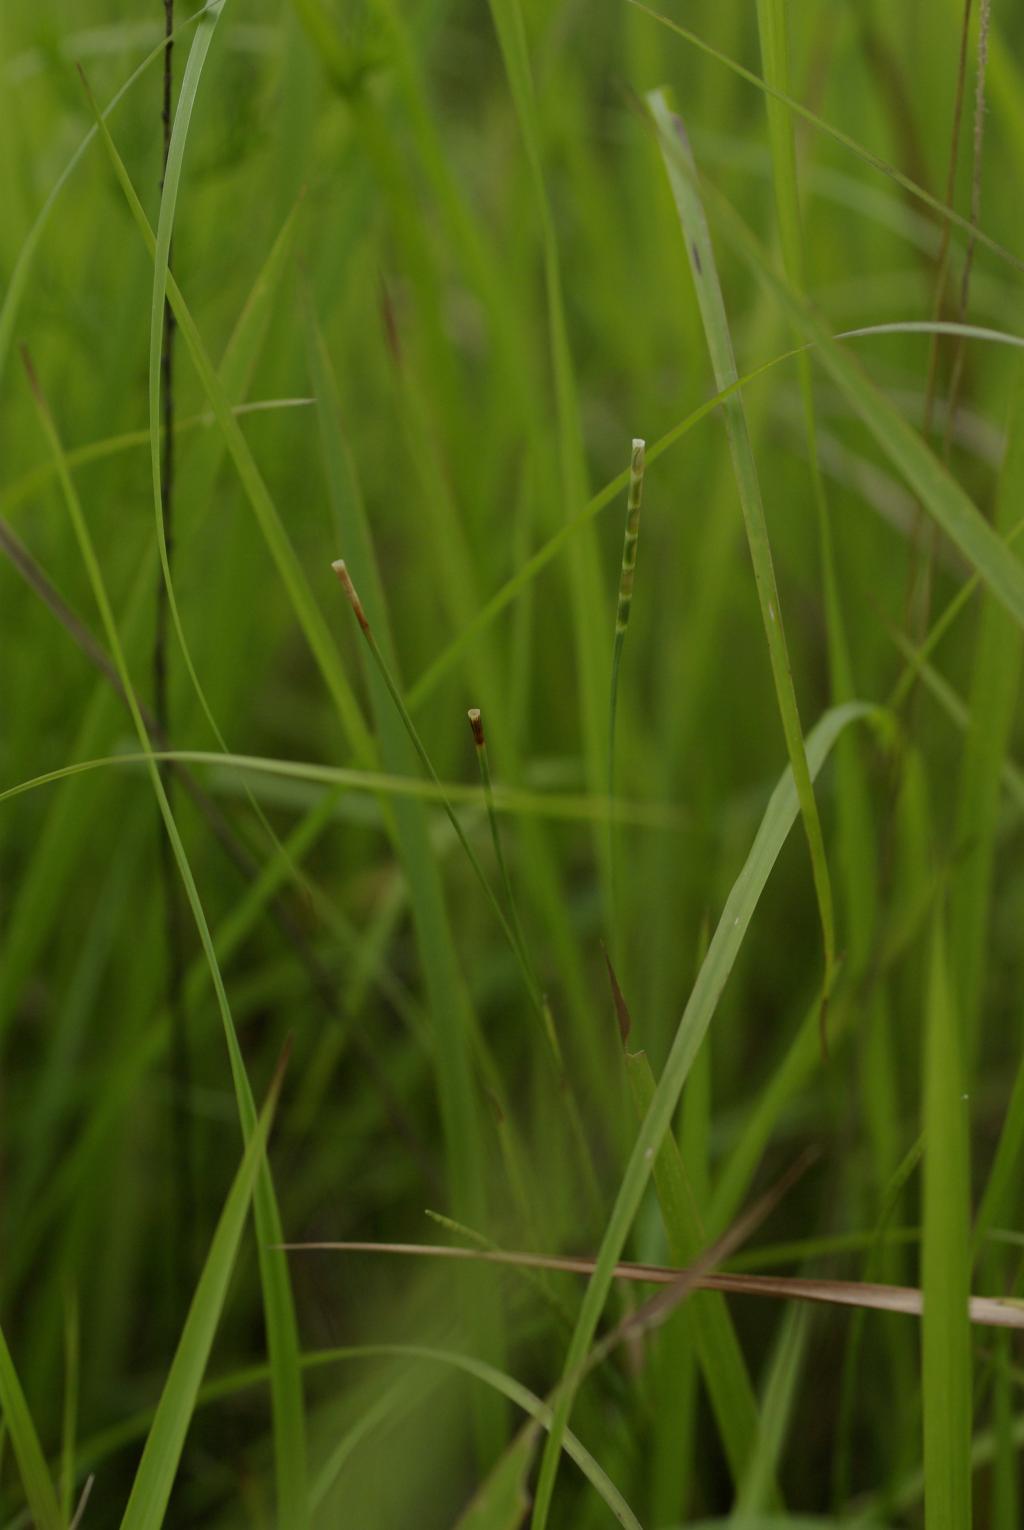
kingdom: Plantae
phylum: Tracheophyta
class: Liliopsida
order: Poales
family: Poaceae
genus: Mnesithea
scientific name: Mnesithea laevis
